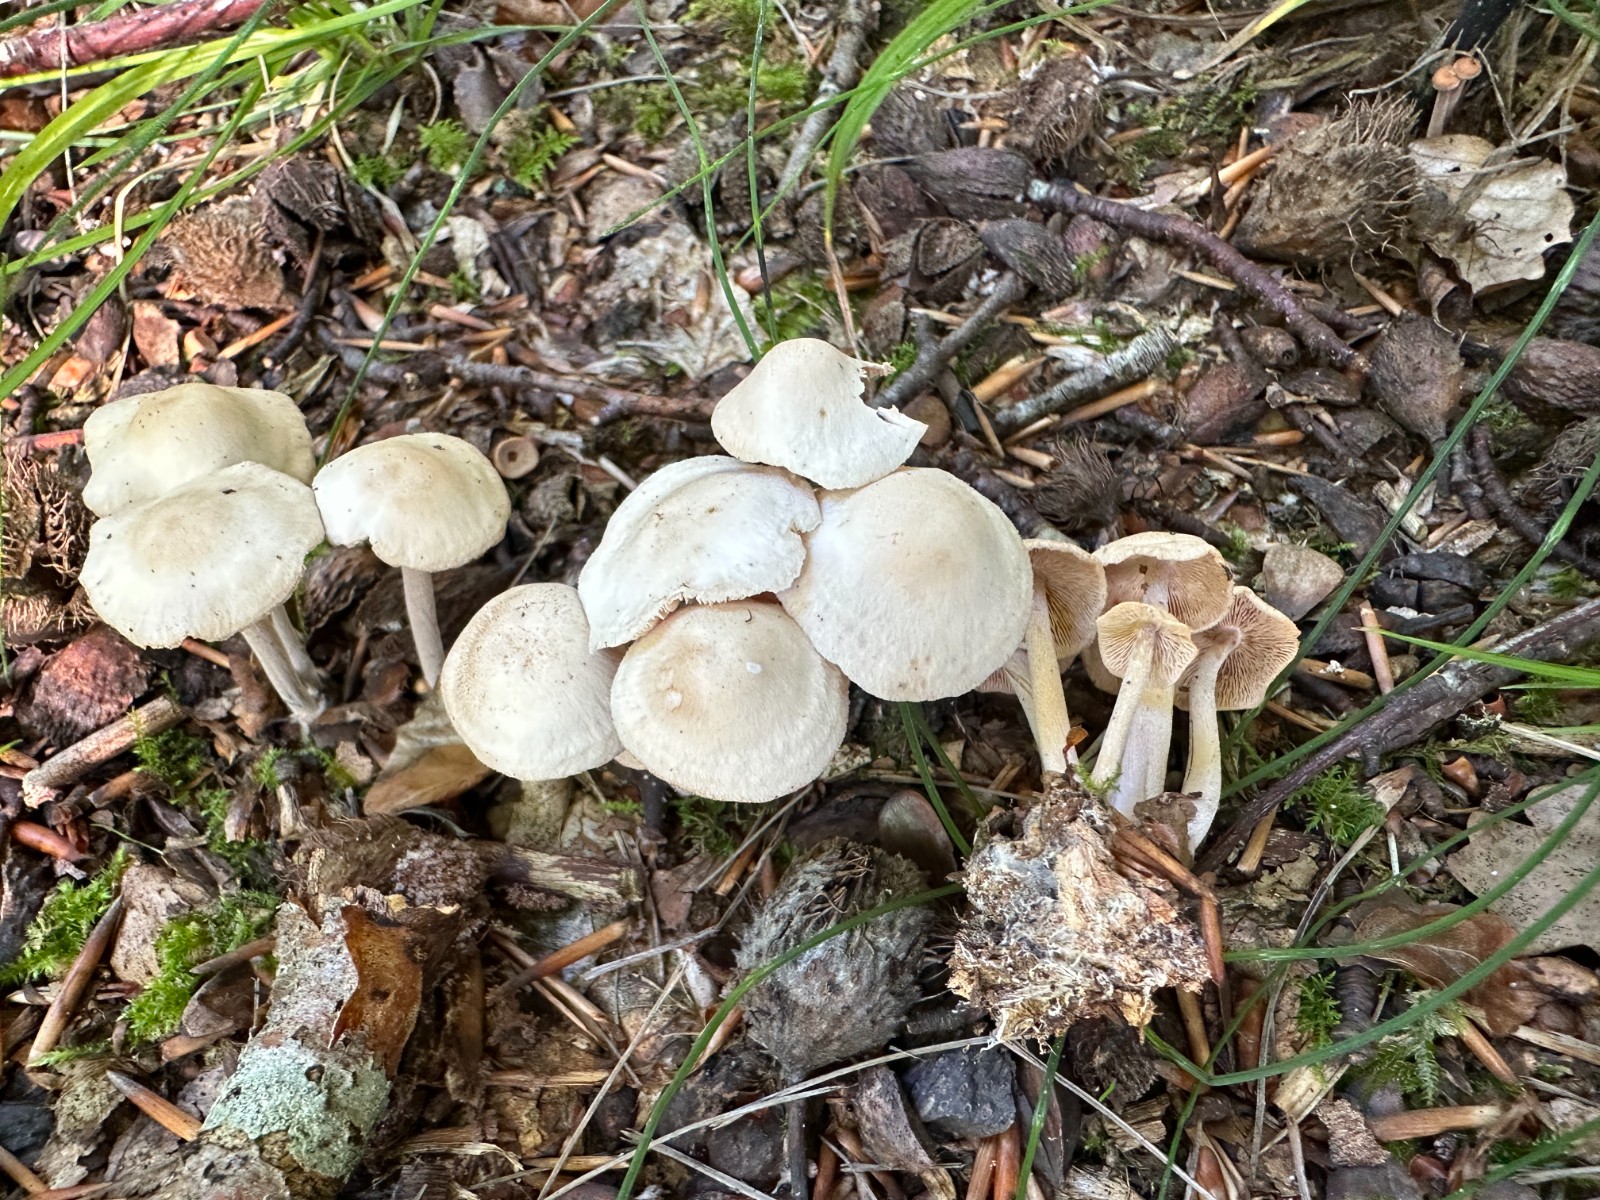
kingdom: Fungi
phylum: Basidiomycota
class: Agaricomycetes
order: Agaricales
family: Omphalotaceae
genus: Collybiopsis
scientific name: Collybiopsis confluens
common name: knippe-fladhat
